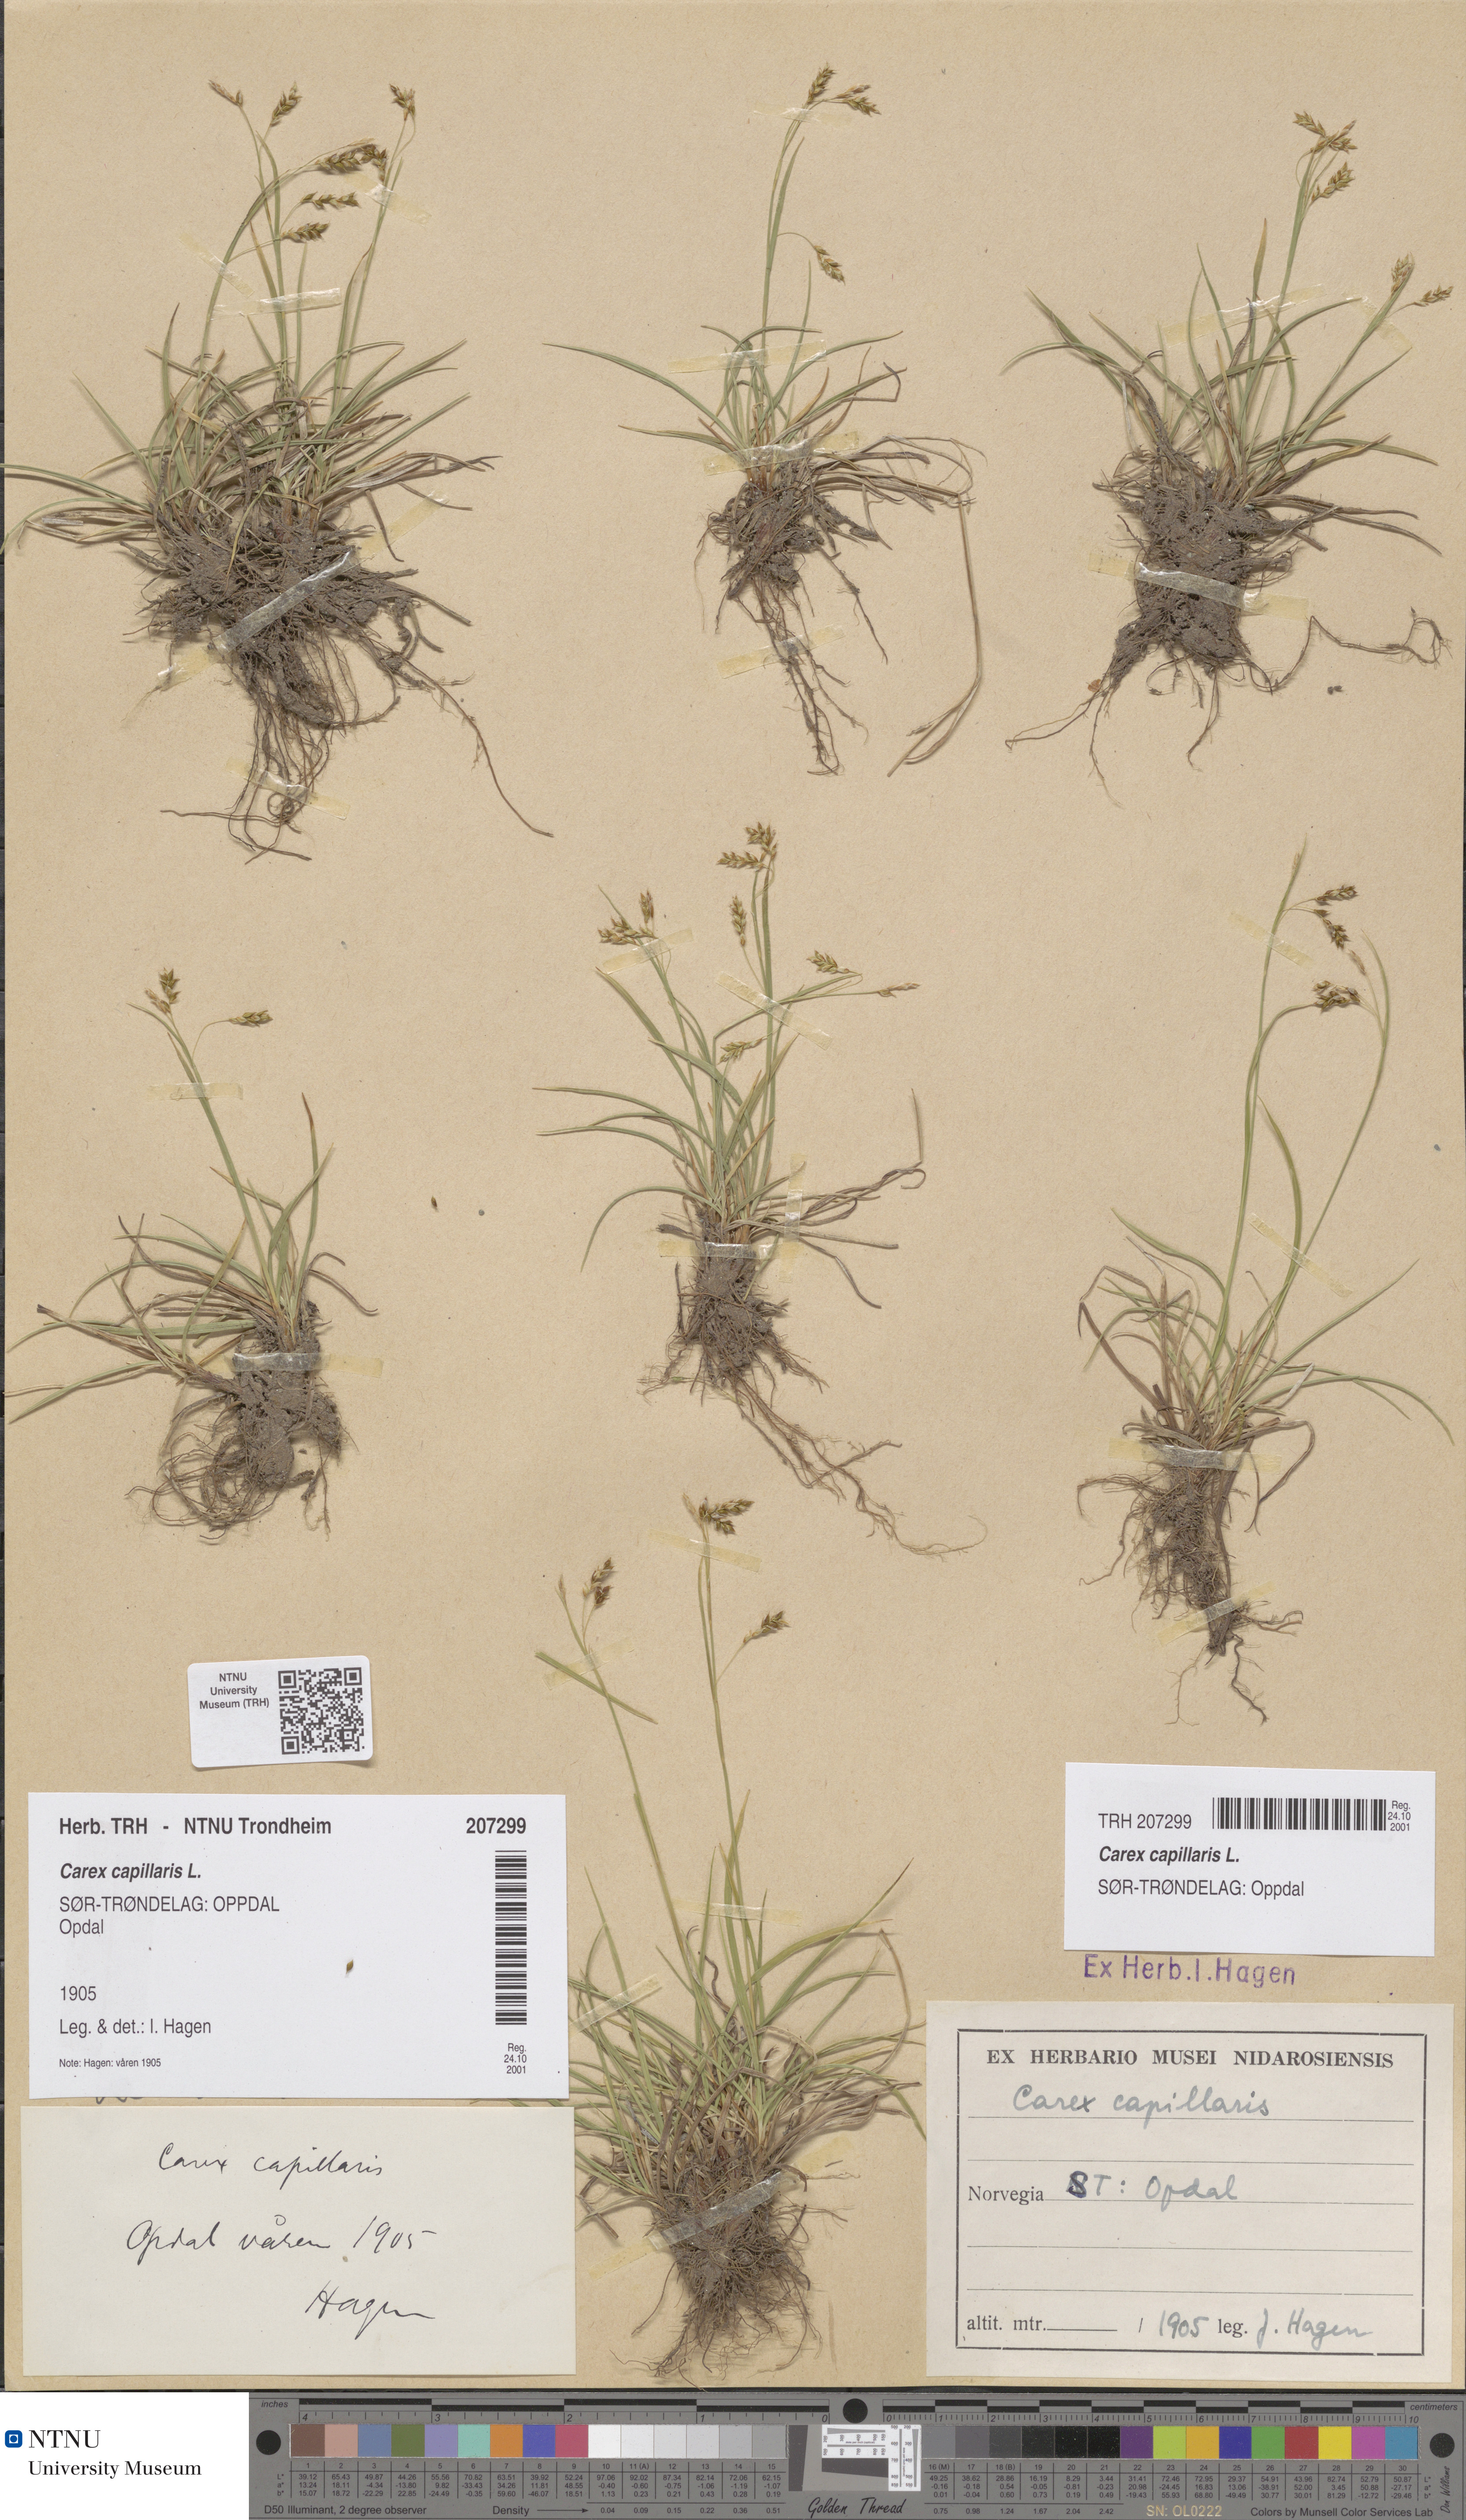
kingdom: Plantae
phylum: Tracheophyta
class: Liliopsida
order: Poales
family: Cyperaceae
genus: Carex
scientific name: Carex capillaris
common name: Hair sedge
